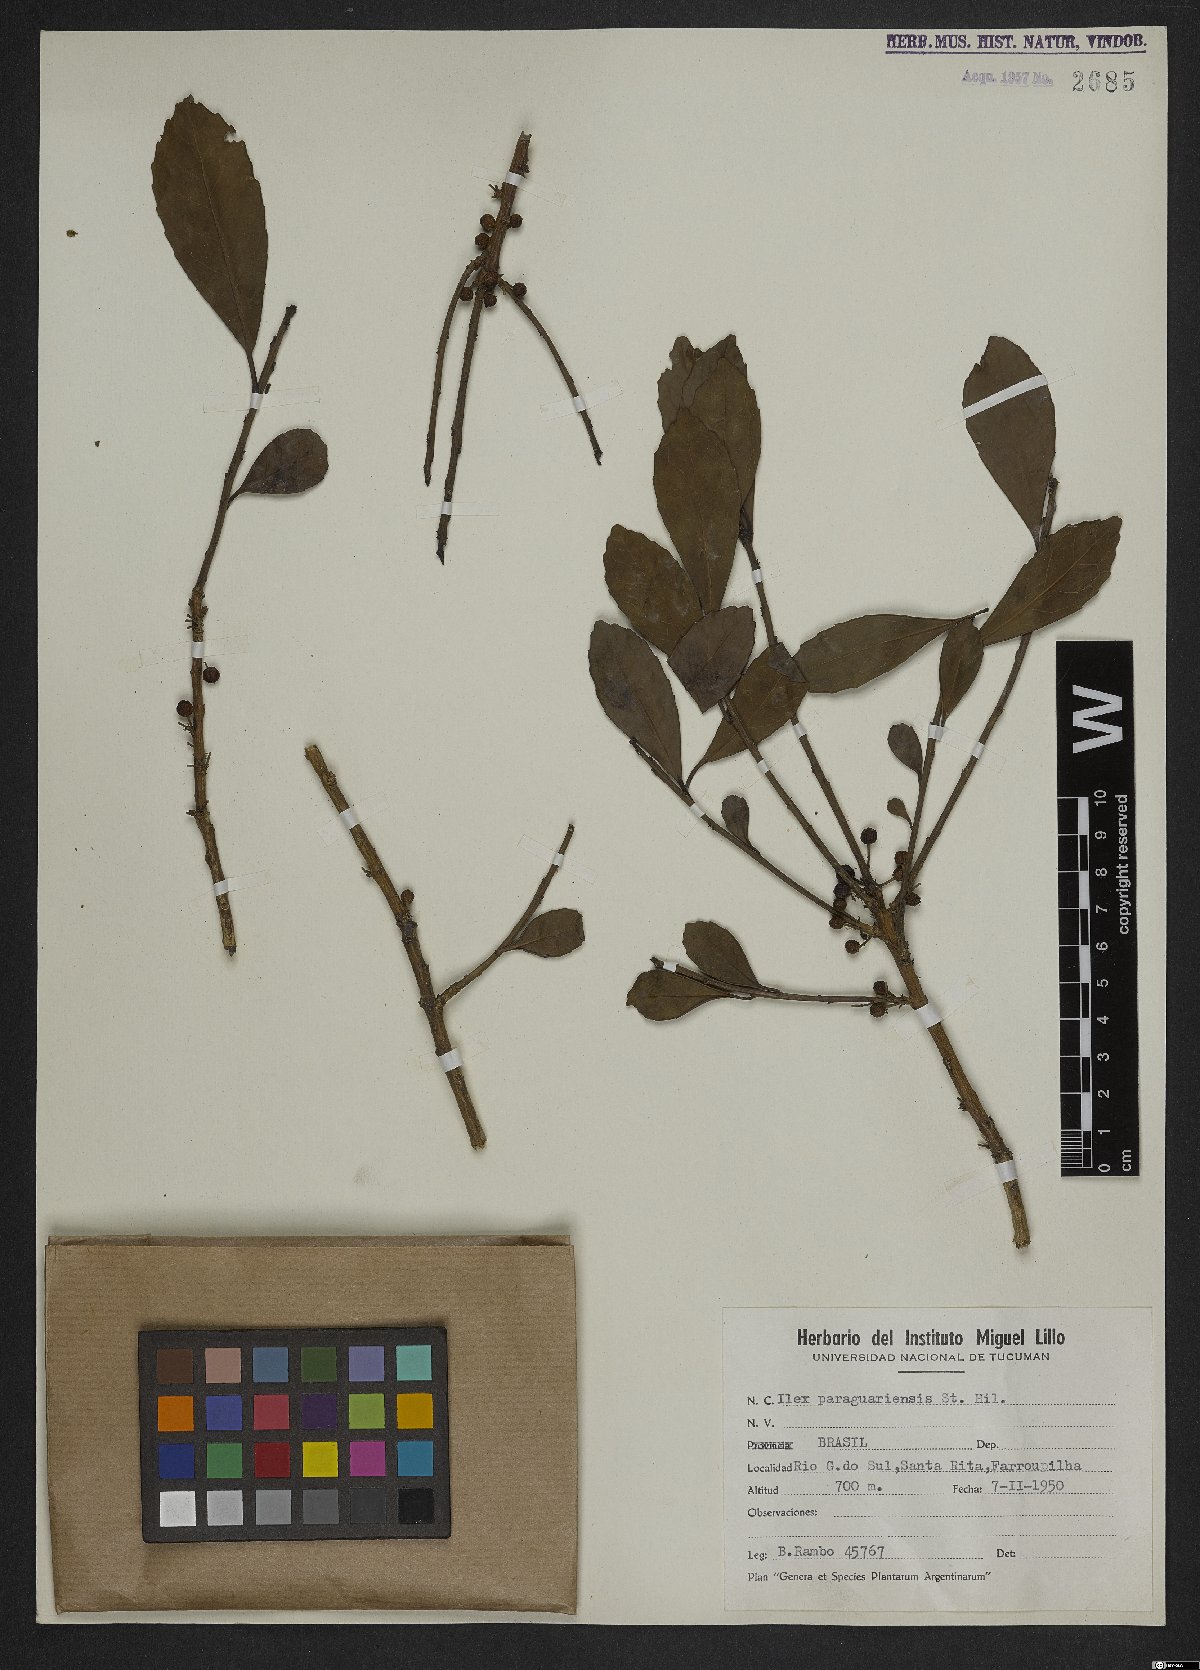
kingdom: Plantae
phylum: Tracheophyta
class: Magnoliopsida
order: Aquifoliales
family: Aquifoliaceae
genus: Ilex
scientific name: Ilex paraguariensis
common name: Paraguay tea
